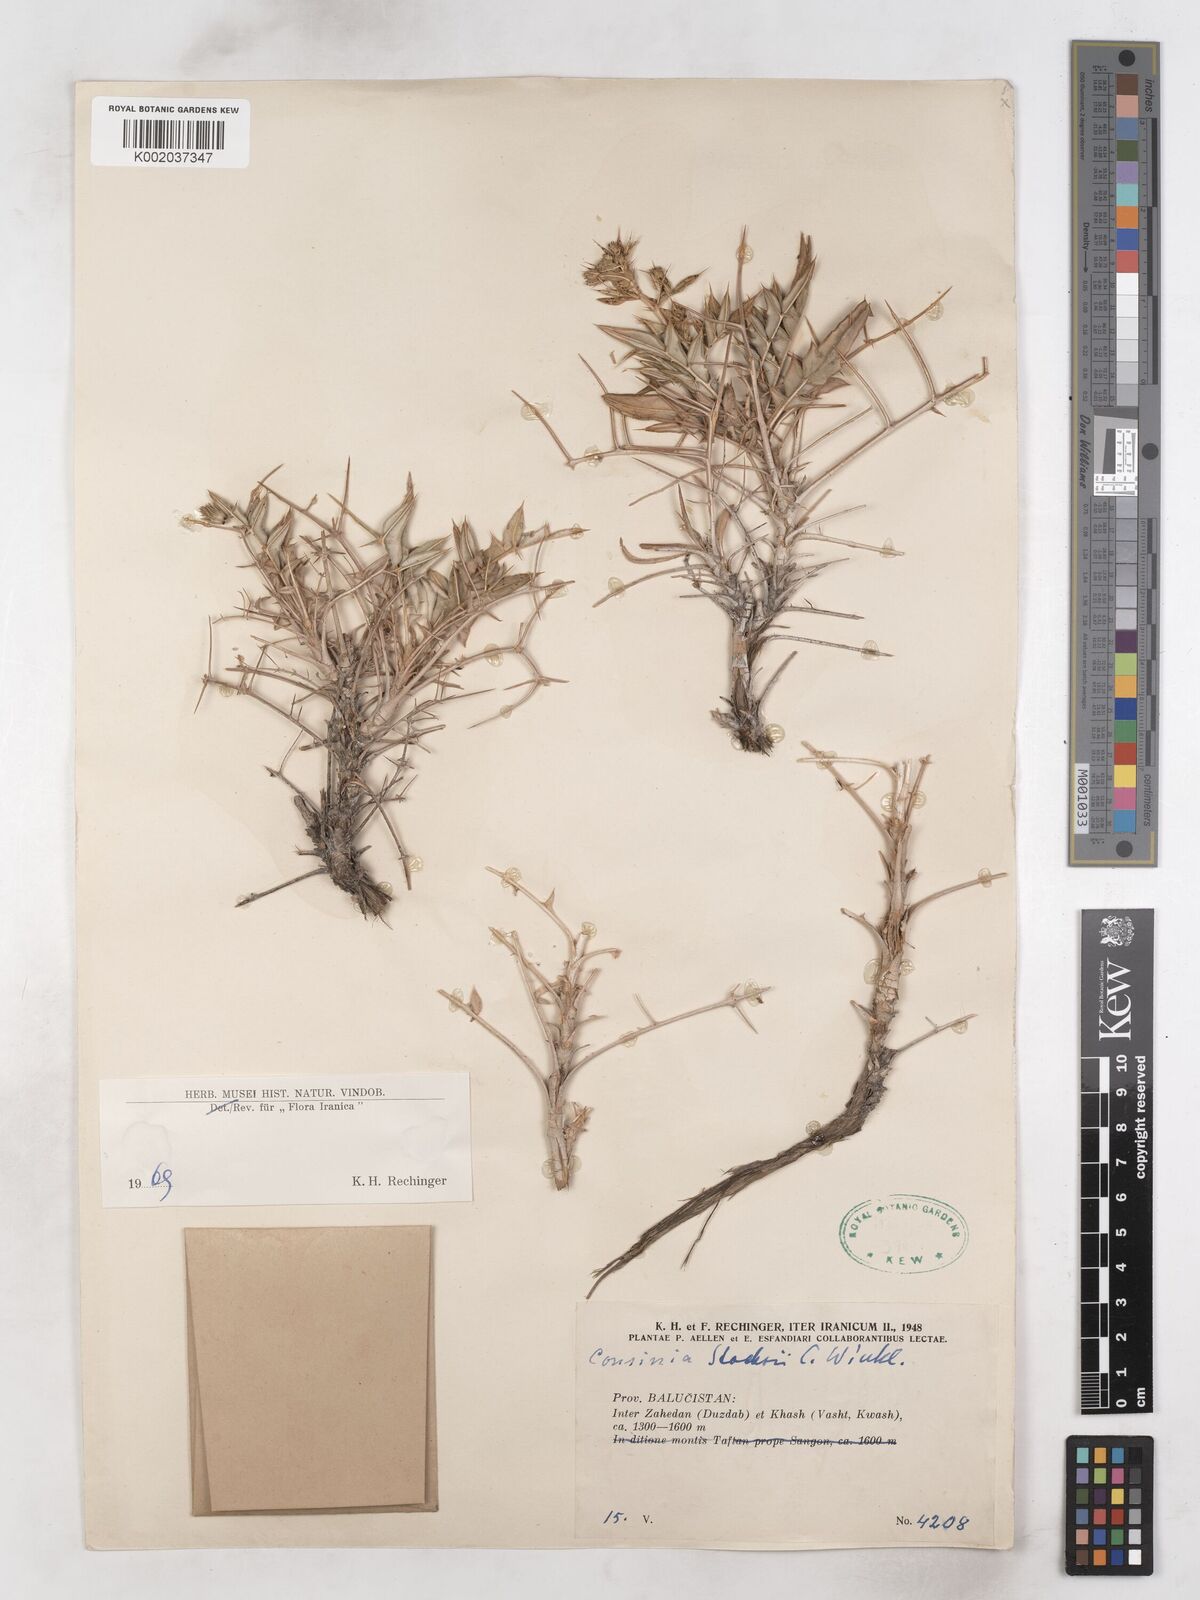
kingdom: Plantae
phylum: Tracheophyta
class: Magnoliopsida
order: Asterales
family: Asteraceae
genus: Cousinia
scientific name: Cousinia stocksii
